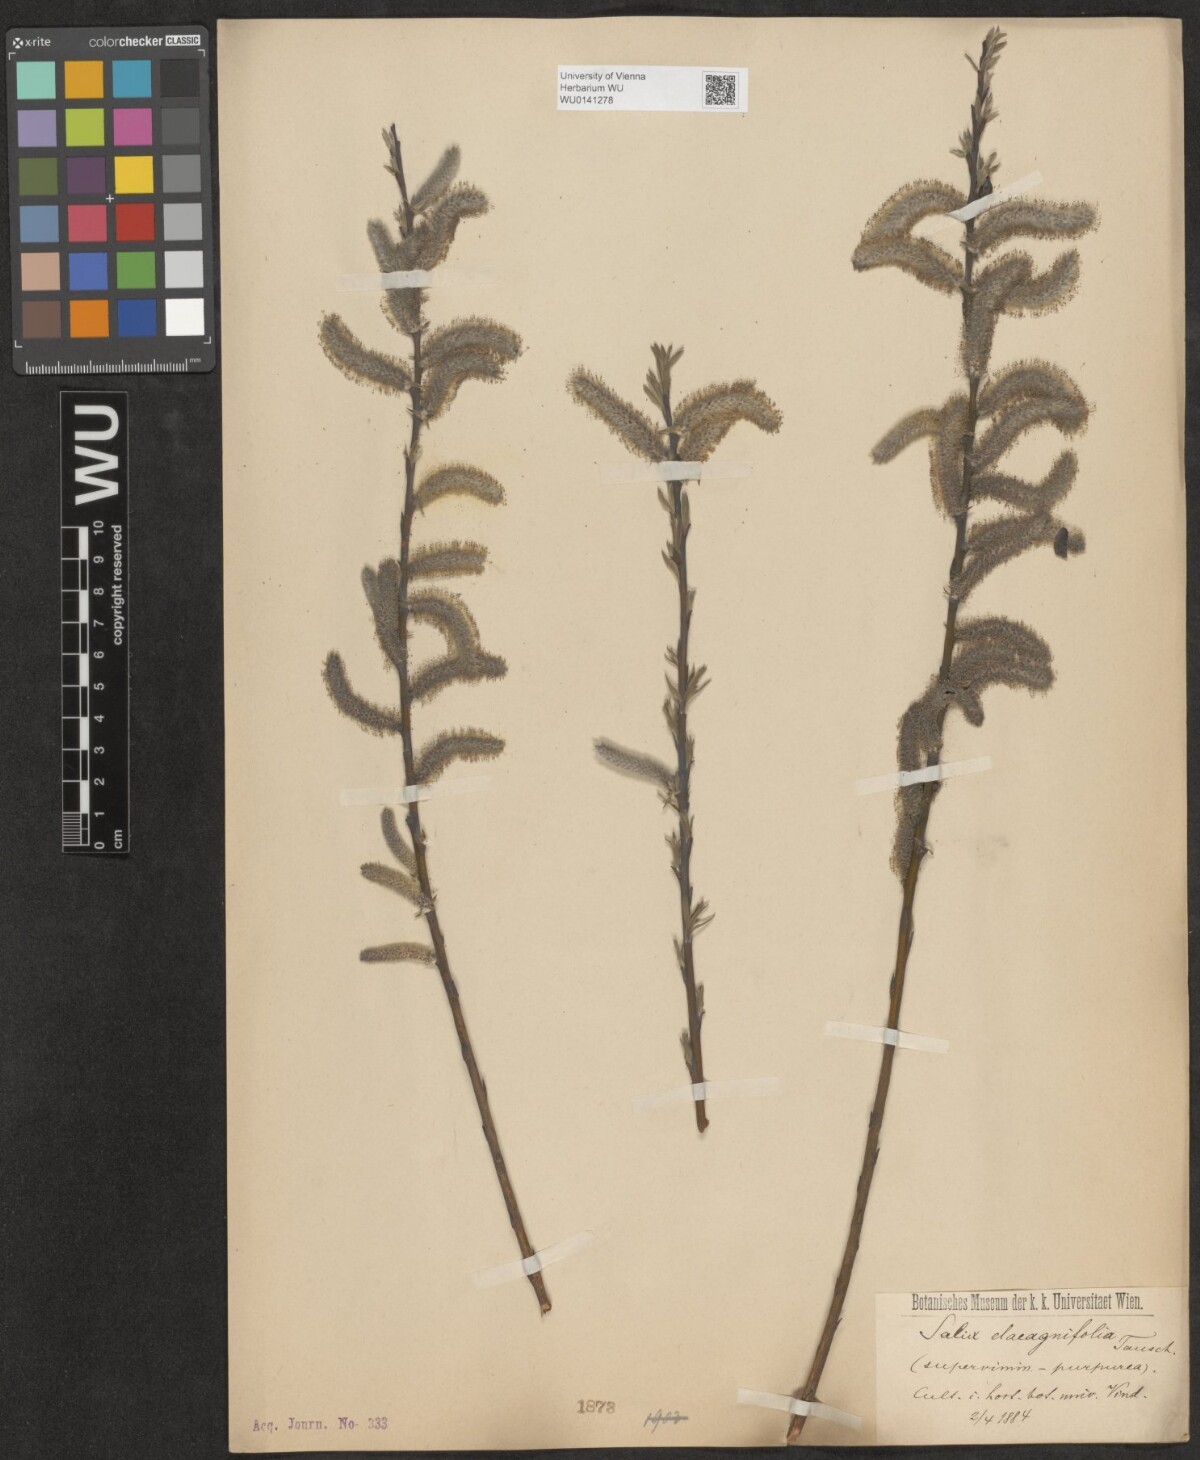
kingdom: Plantae
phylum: Tracheophyta
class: Magnoliopsida
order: Malpighiales
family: Salicaceae
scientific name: Salicaceae
